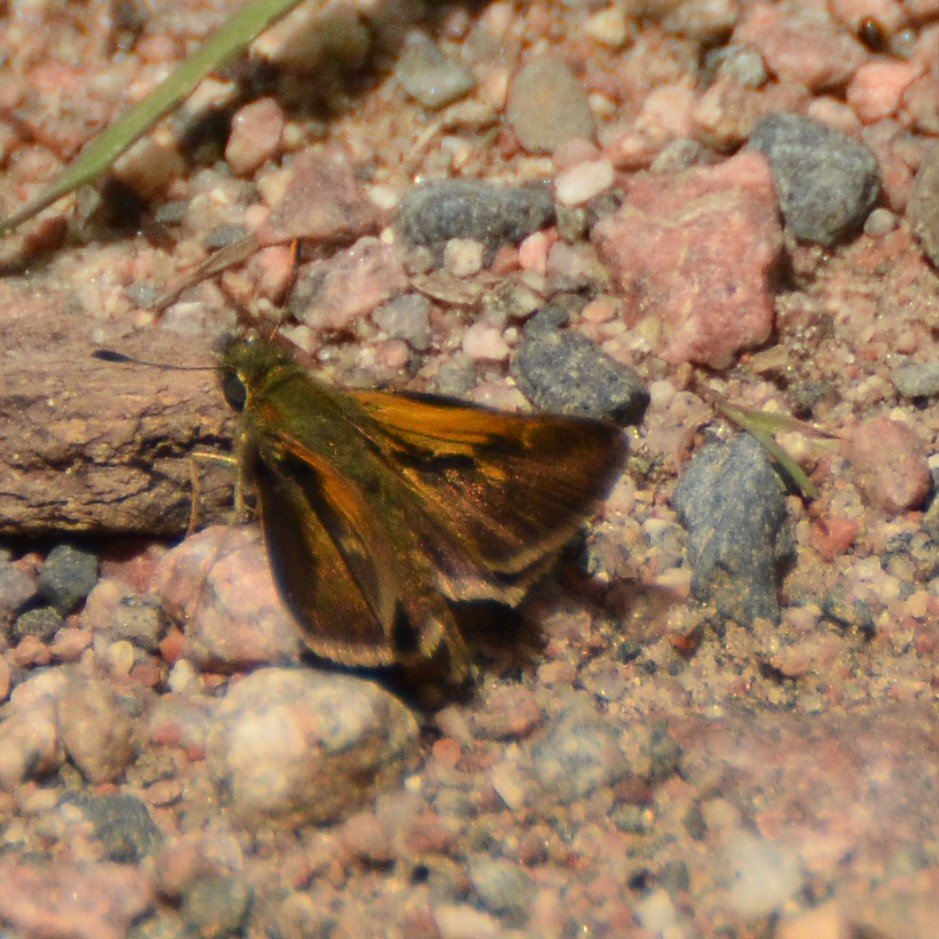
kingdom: Animalia
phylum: Arthropoda
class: Insecta
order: Lepidoptera
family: Hesperiidae
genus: Polites
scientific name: Polites themistocles
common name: Tawny-edged Skipper
